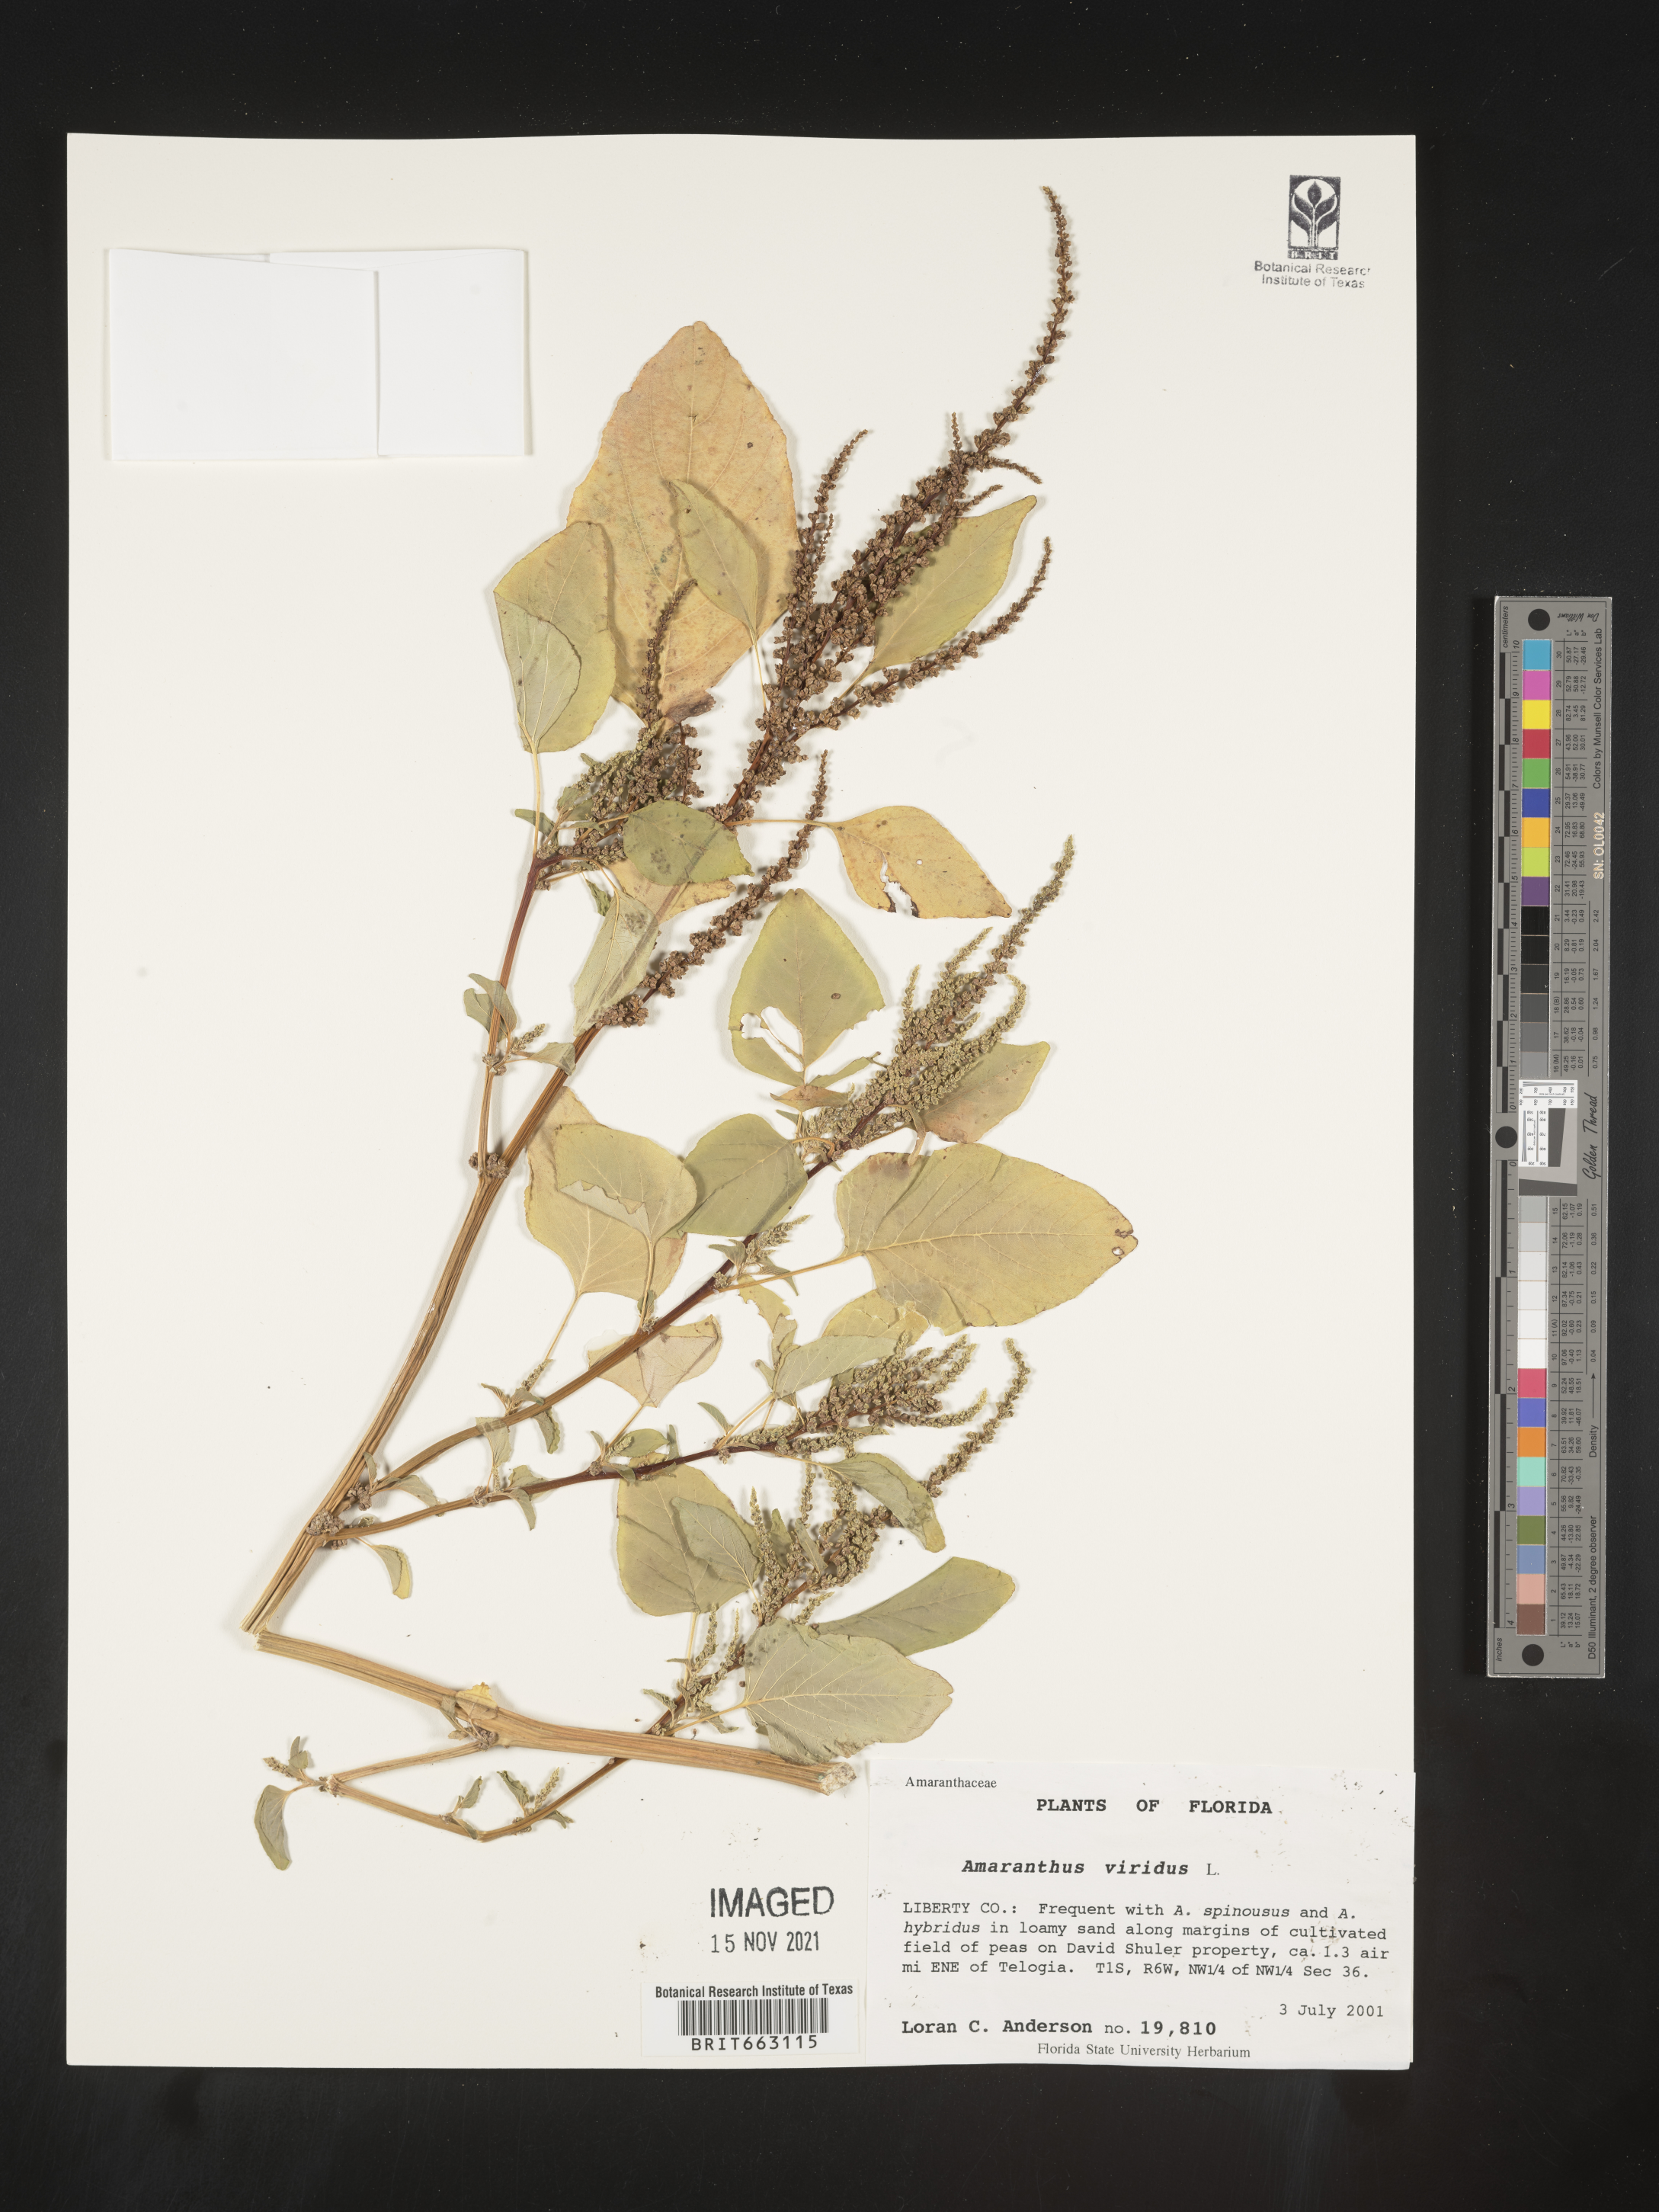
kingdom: Plantae
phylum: Tracheophyta
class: Magnoliopsida
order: Caryophyllales
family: Amaranthaceae
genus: Amaranthus
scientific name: Amaranthus viridis
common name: Slender amaranth
